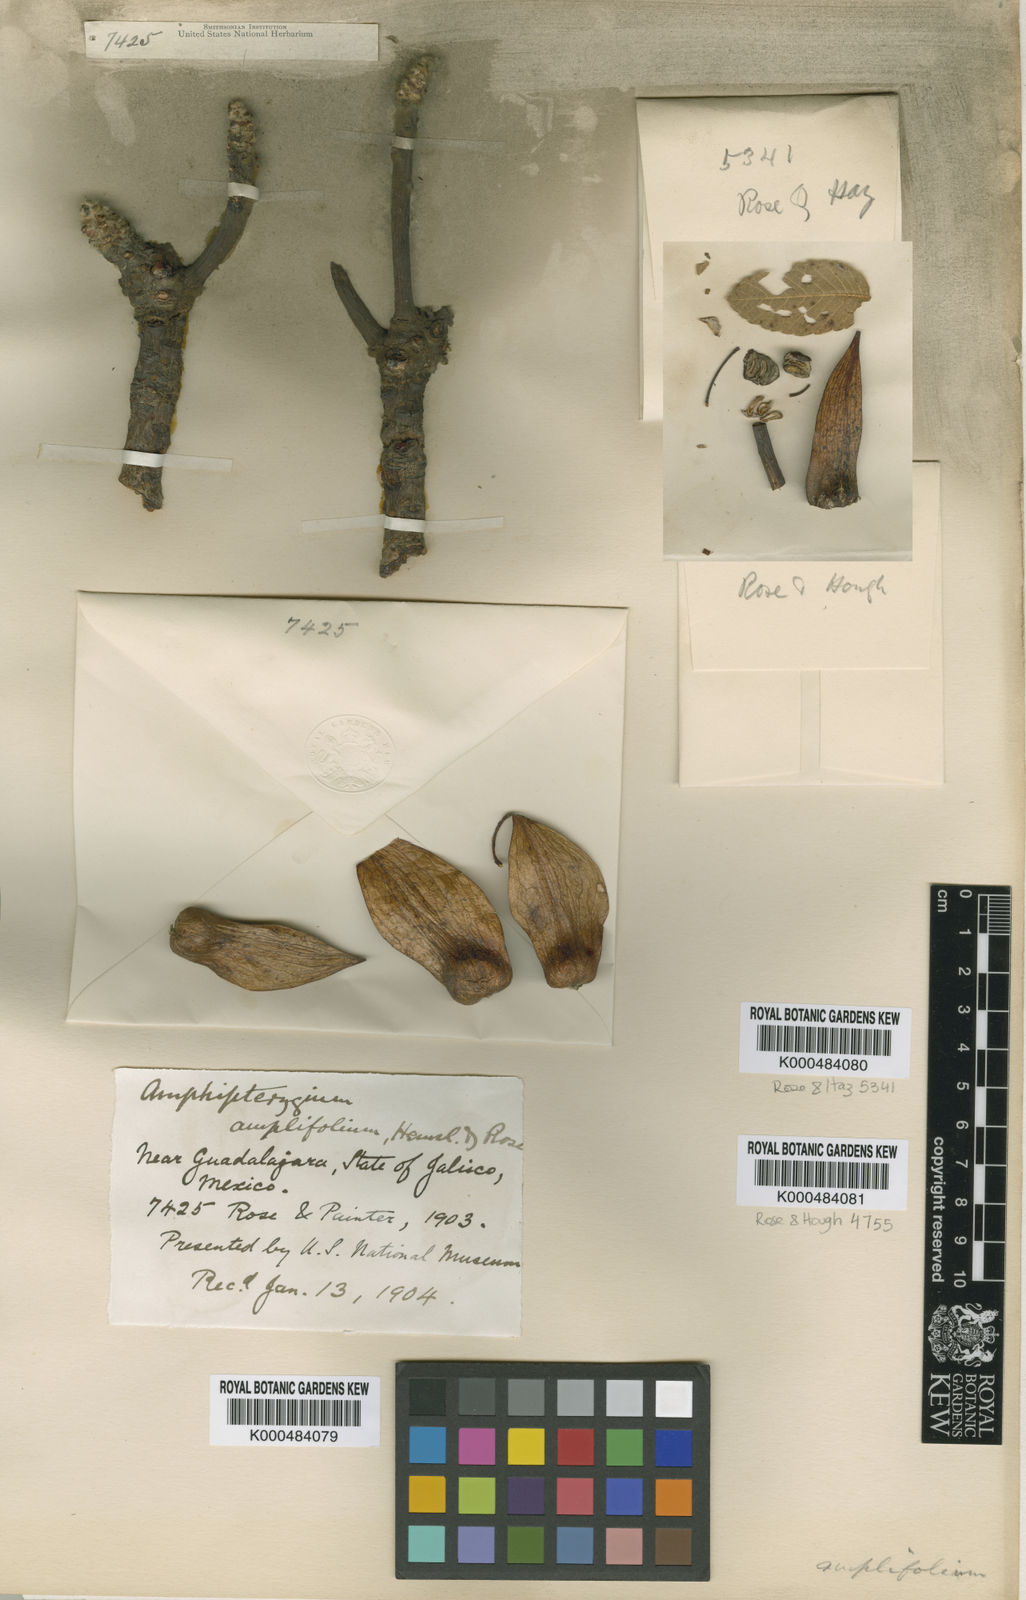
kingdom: Plantae
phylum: Tracheophyta
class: Magnoliopsida
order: Sapindales
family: Anacardiaceae
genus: Amphipterygium
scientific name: Amphipterygium
